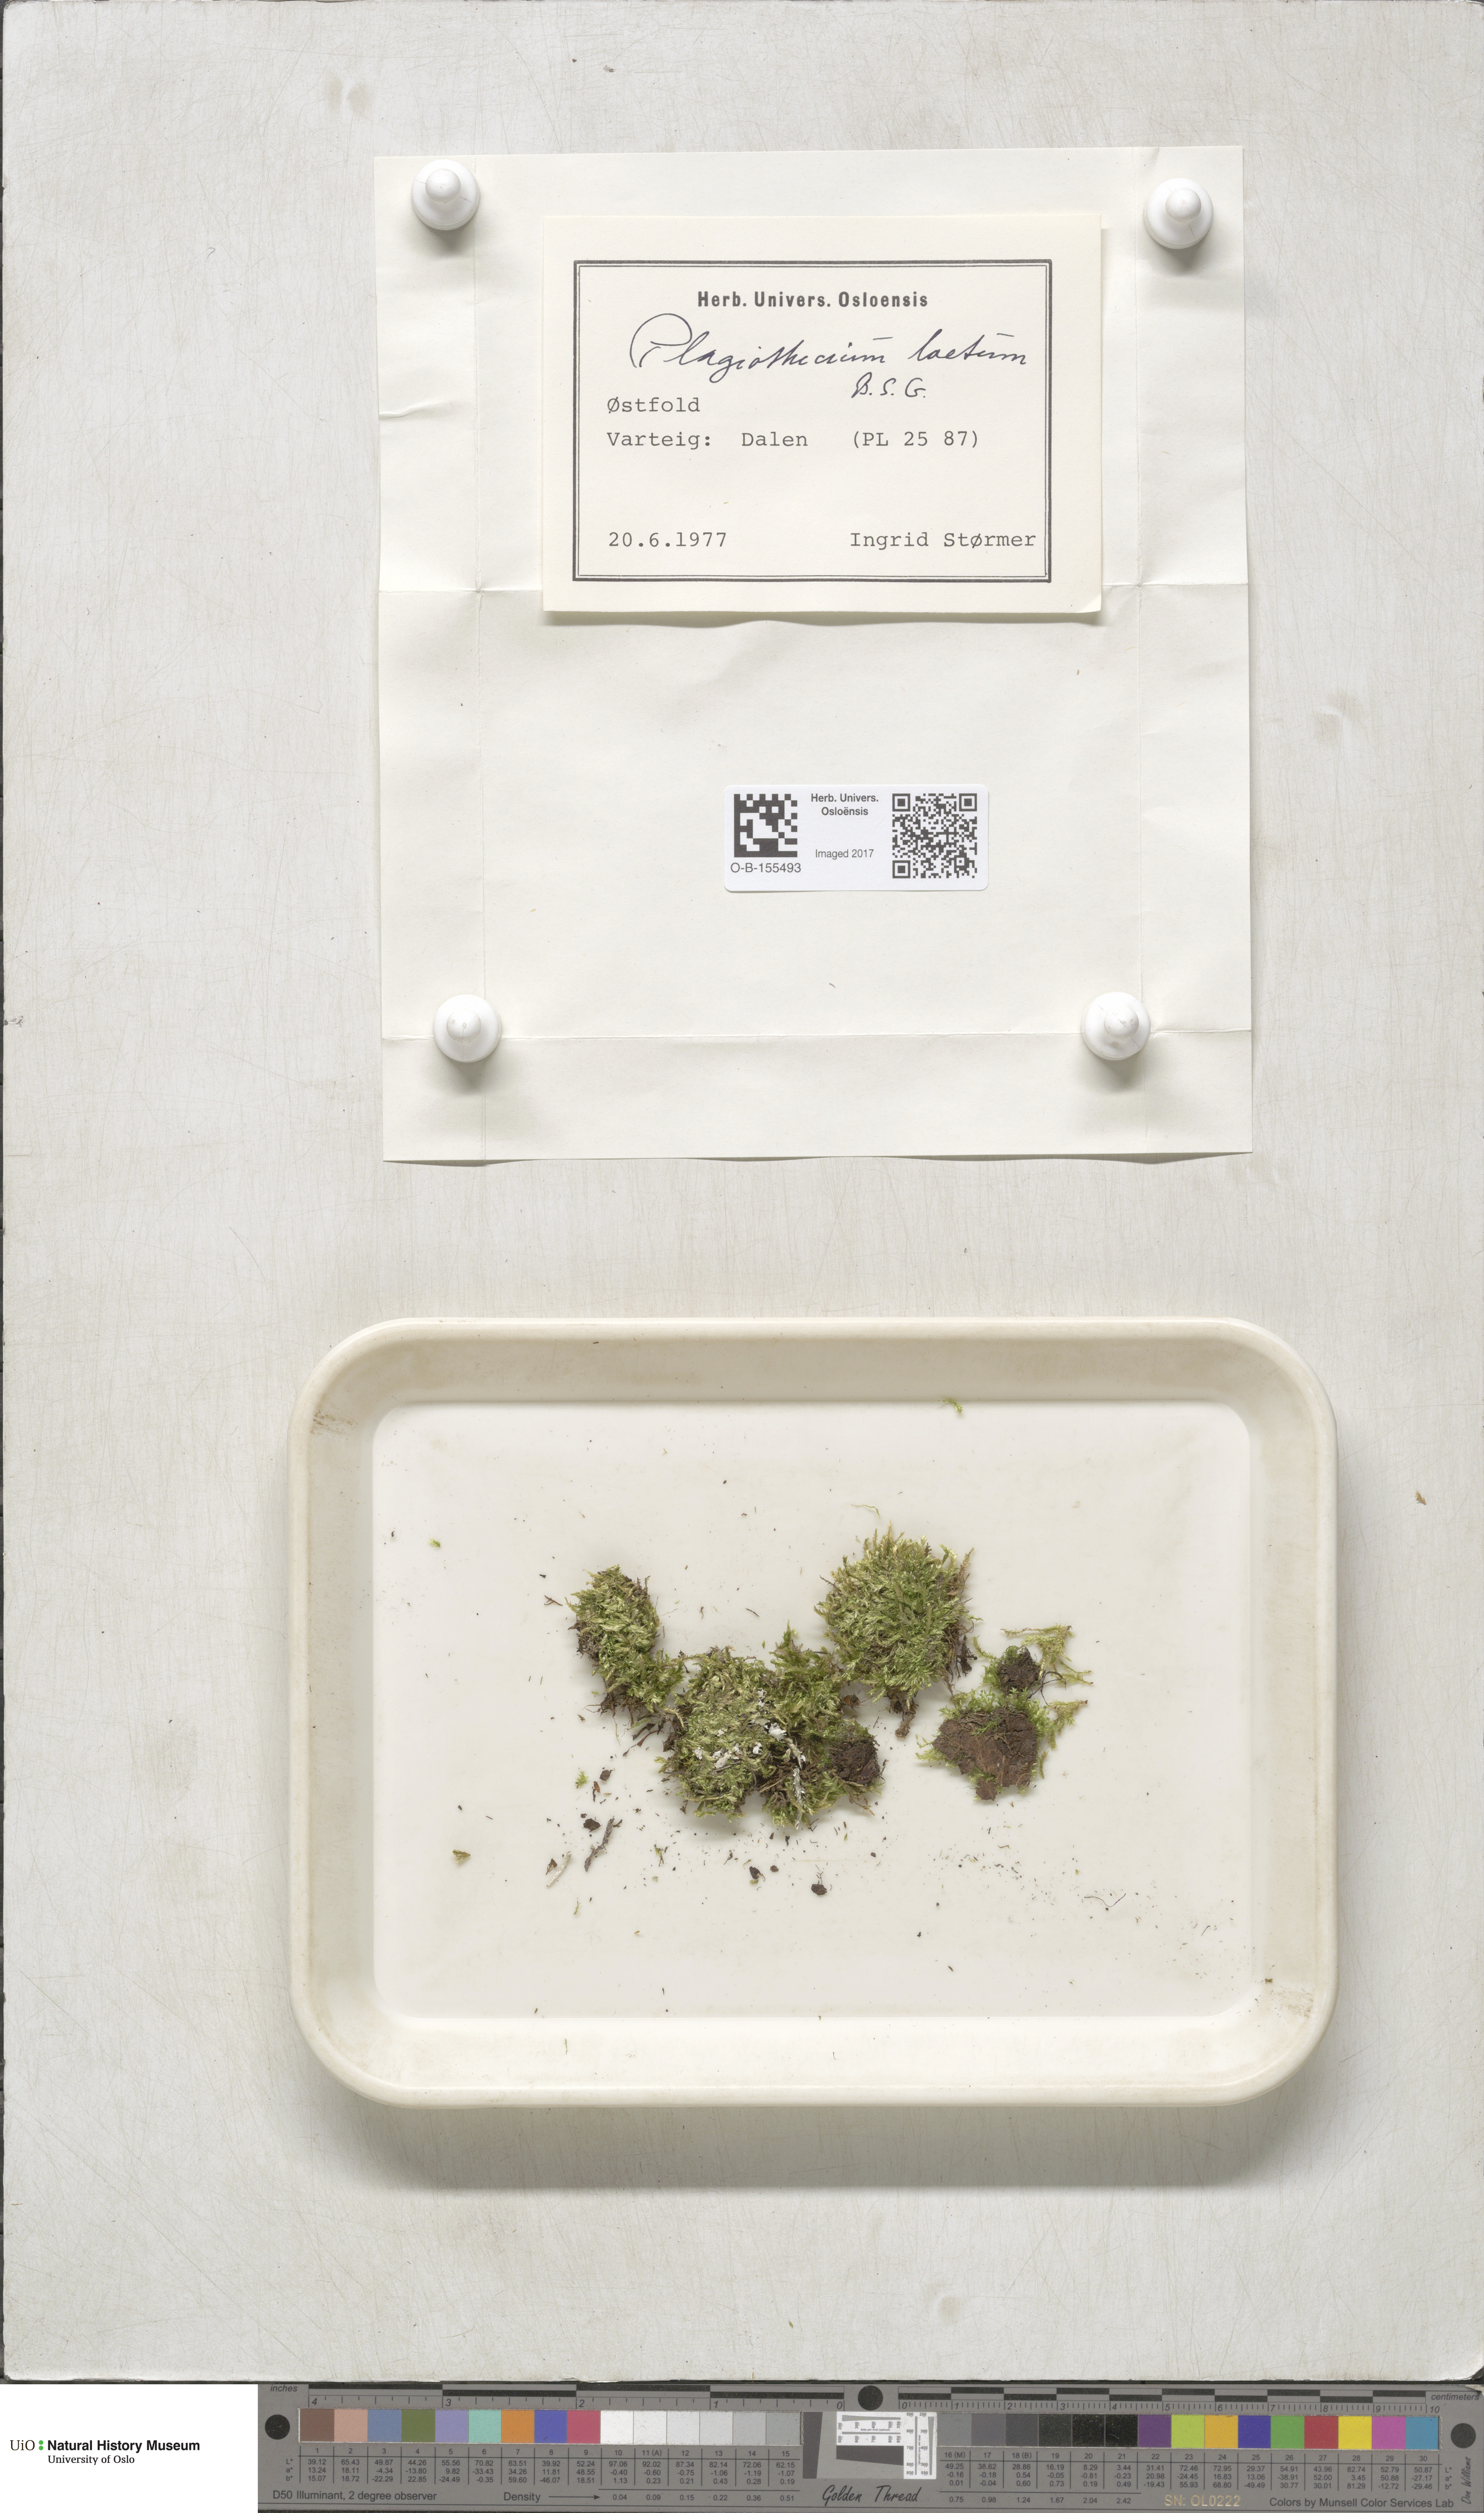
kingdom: Plantae
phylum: Bryophyta
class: Bryopsida
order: Hypnales
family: Plagiotheciaceae
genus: Plagiothecium
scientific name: Plagiothecium laetum
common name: Bright silk moss
